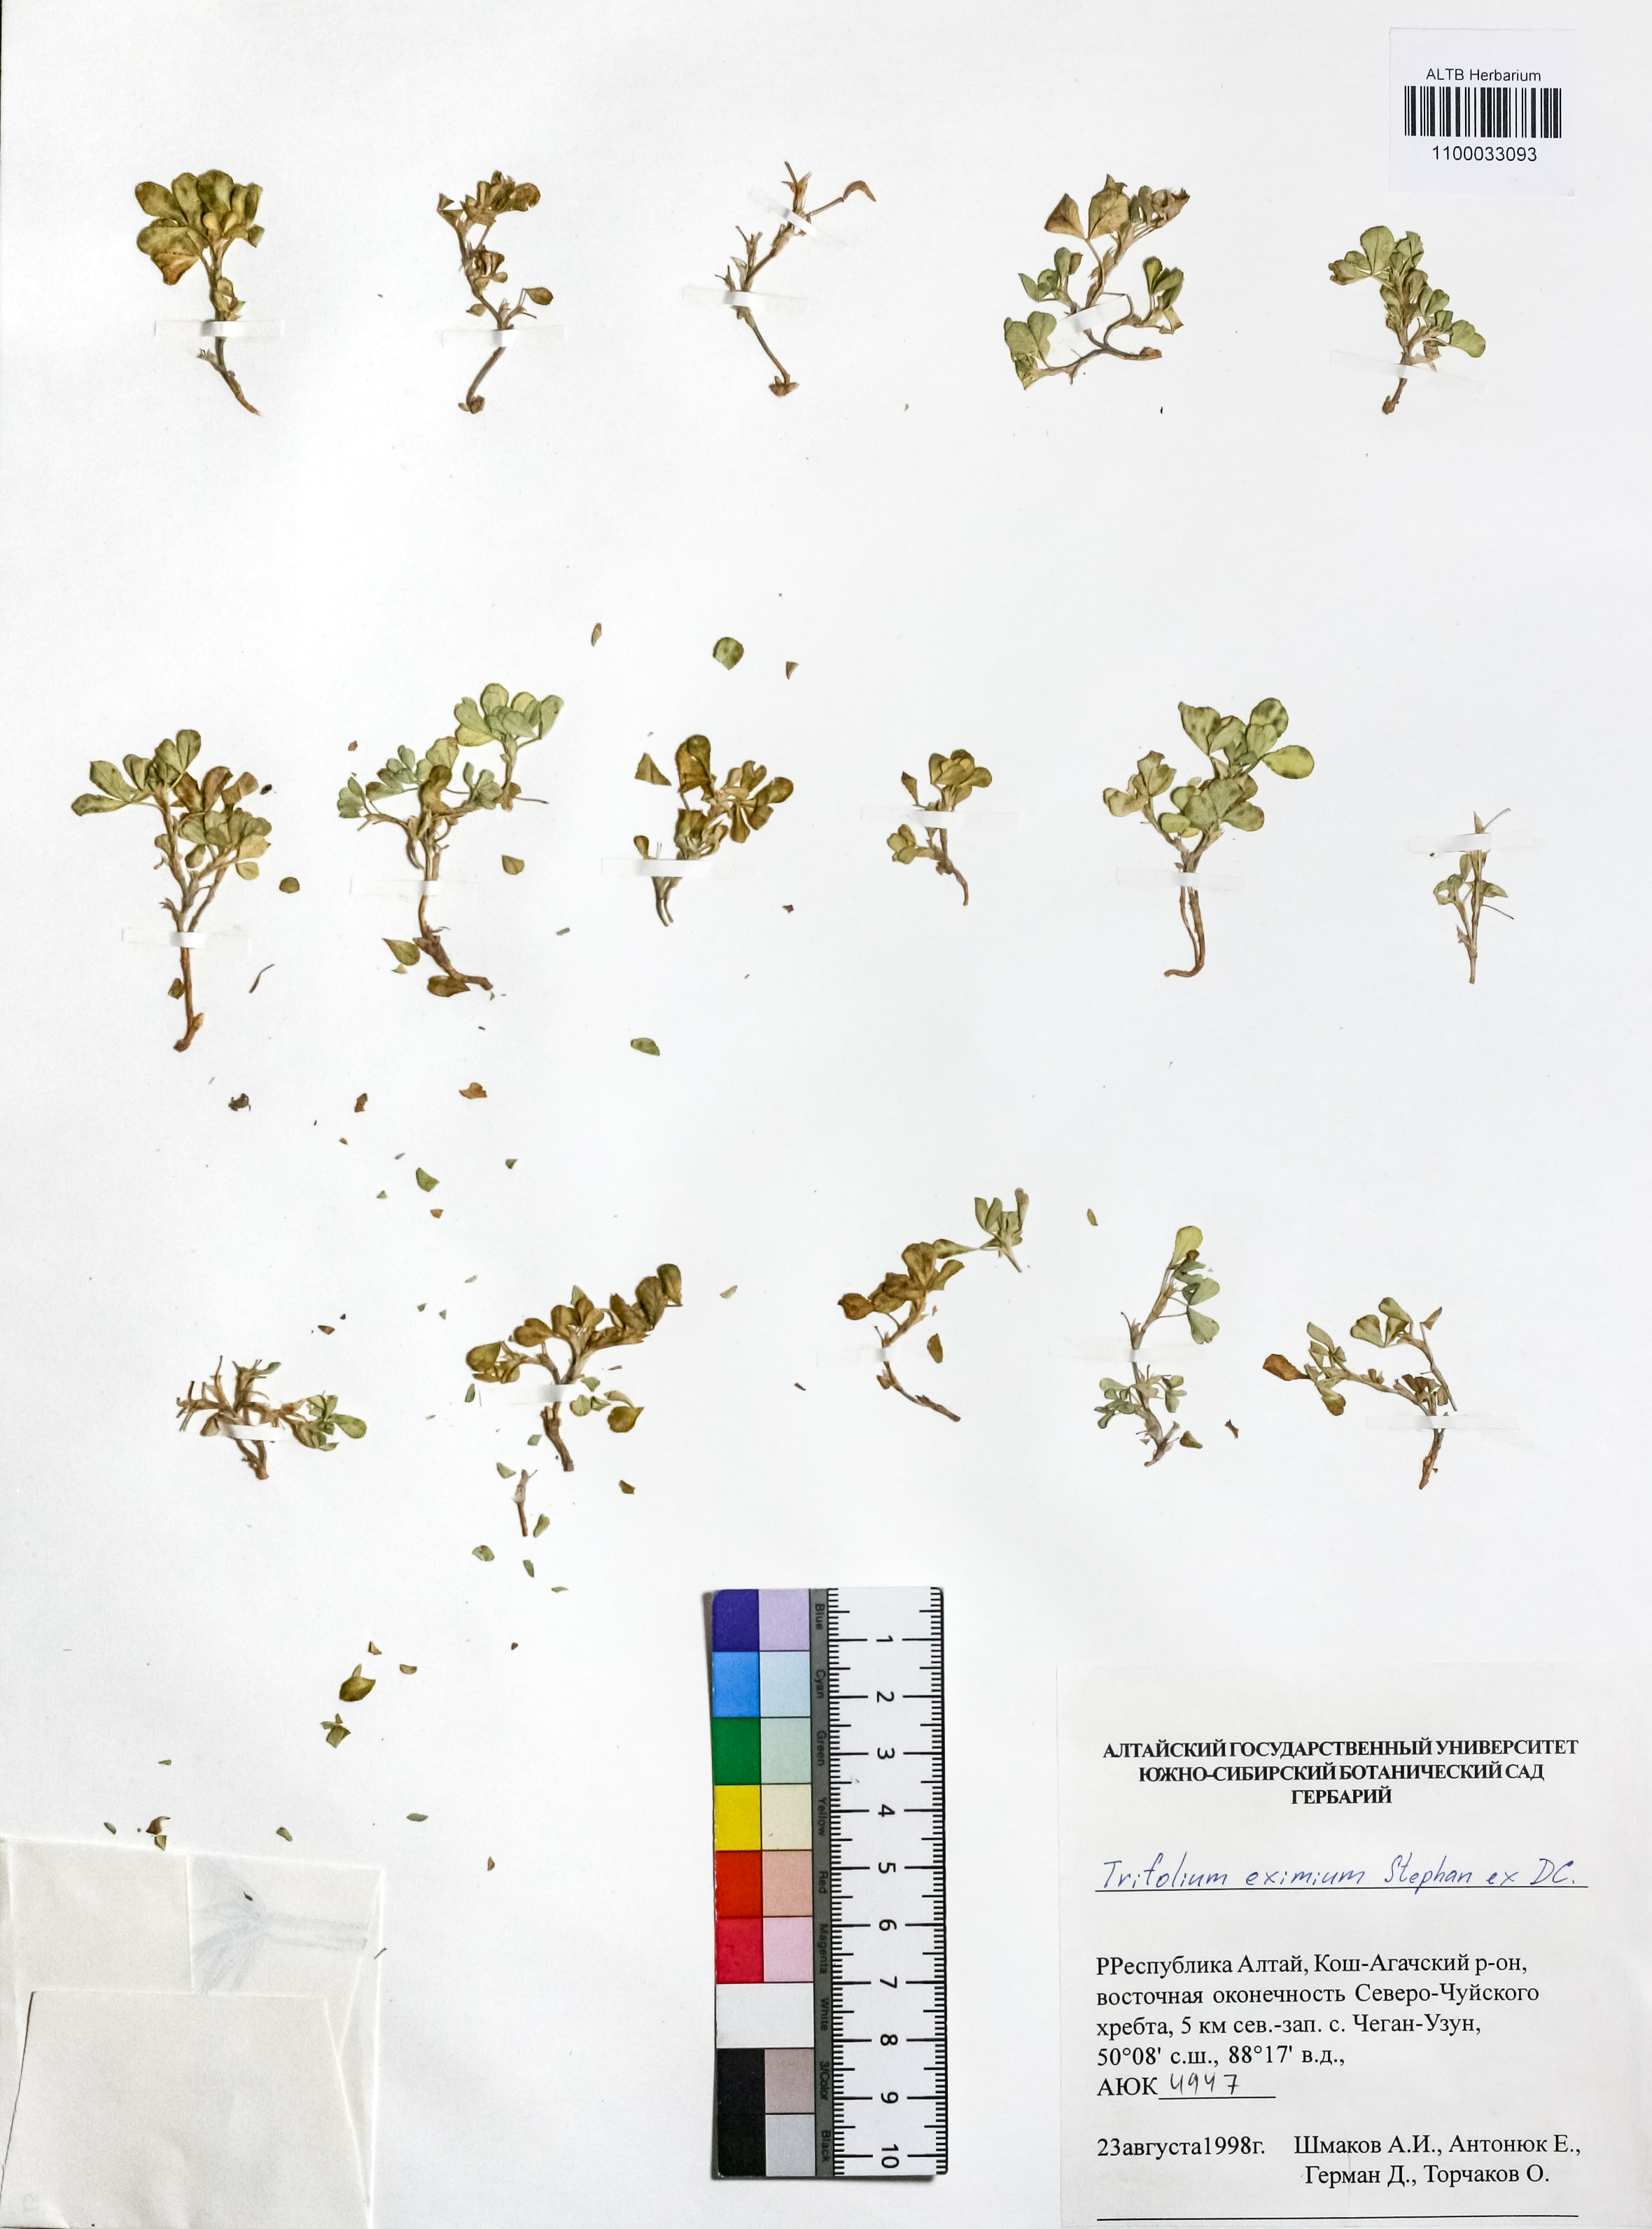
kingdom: Plantae
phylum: Tracheophyta
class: Magnoliopsida
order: Fabales
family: Fabaceae
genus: Trifolium
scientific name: Trifolium eximium
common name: Excellent clover
